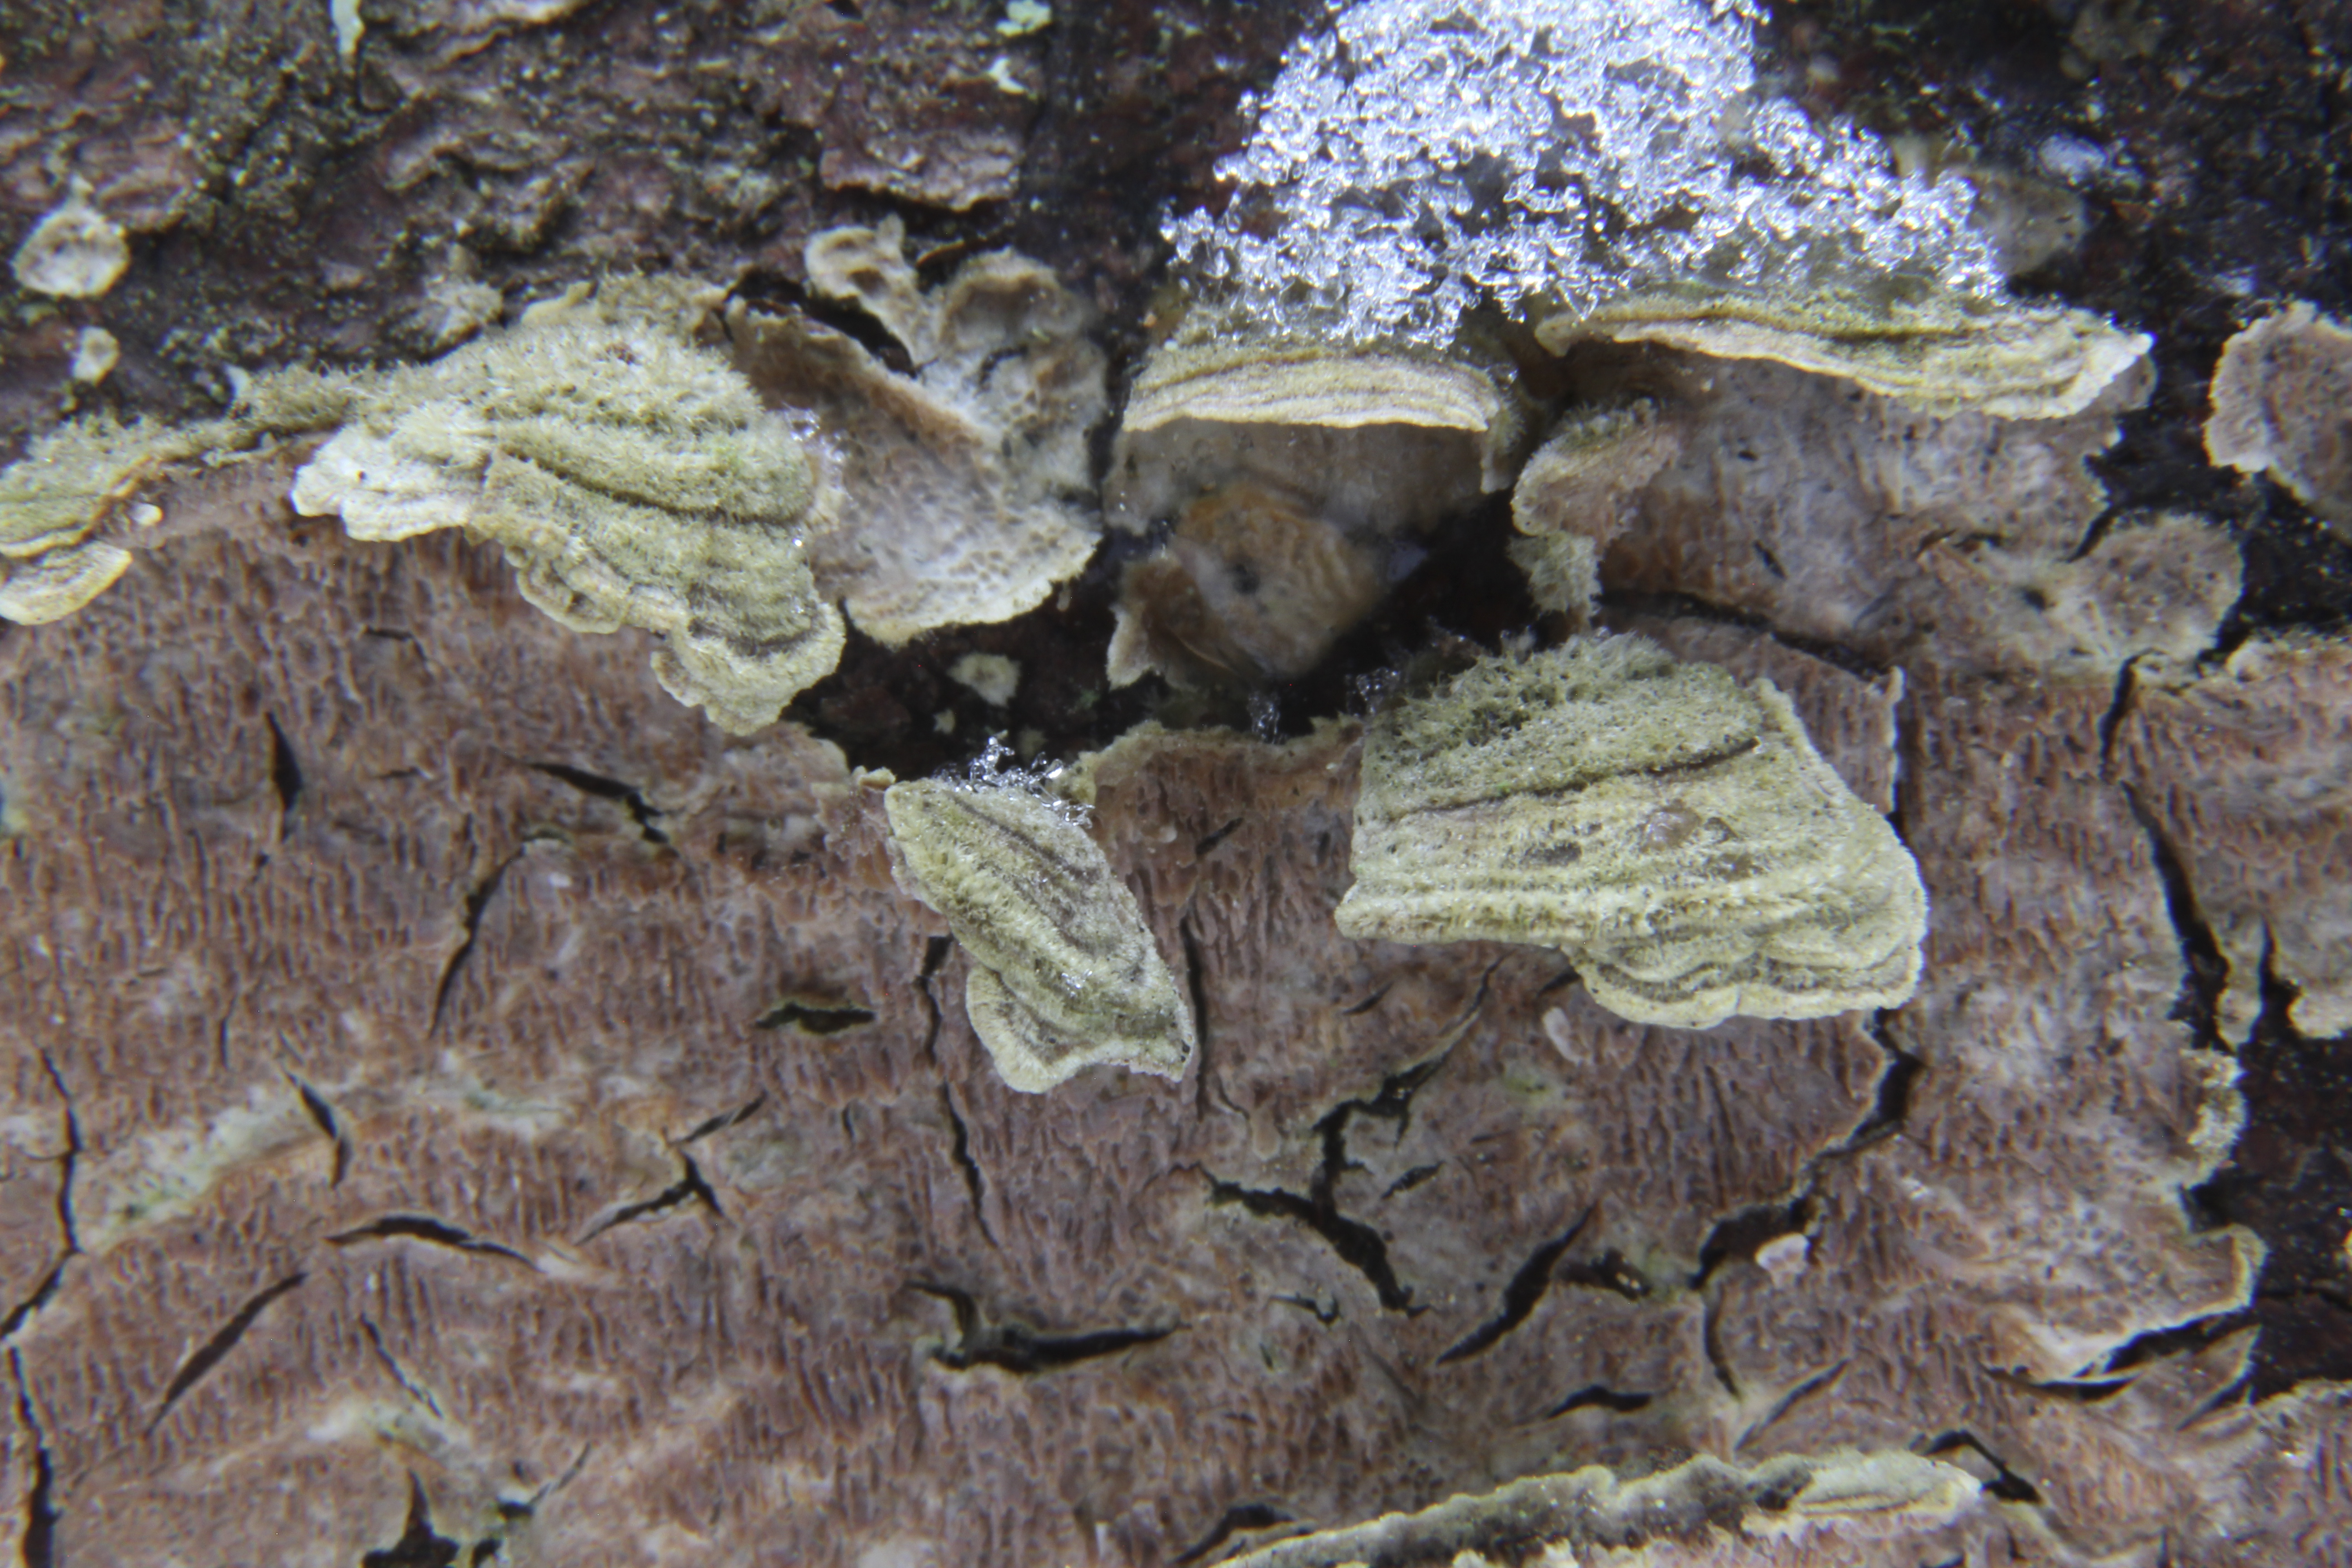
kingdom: Fungi
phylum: Basidiomycota
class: Agaricomycetes
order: Hymenochaetales
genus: Trichaptum
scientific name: Trichaptum abietinum
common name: Purplepore bracket
